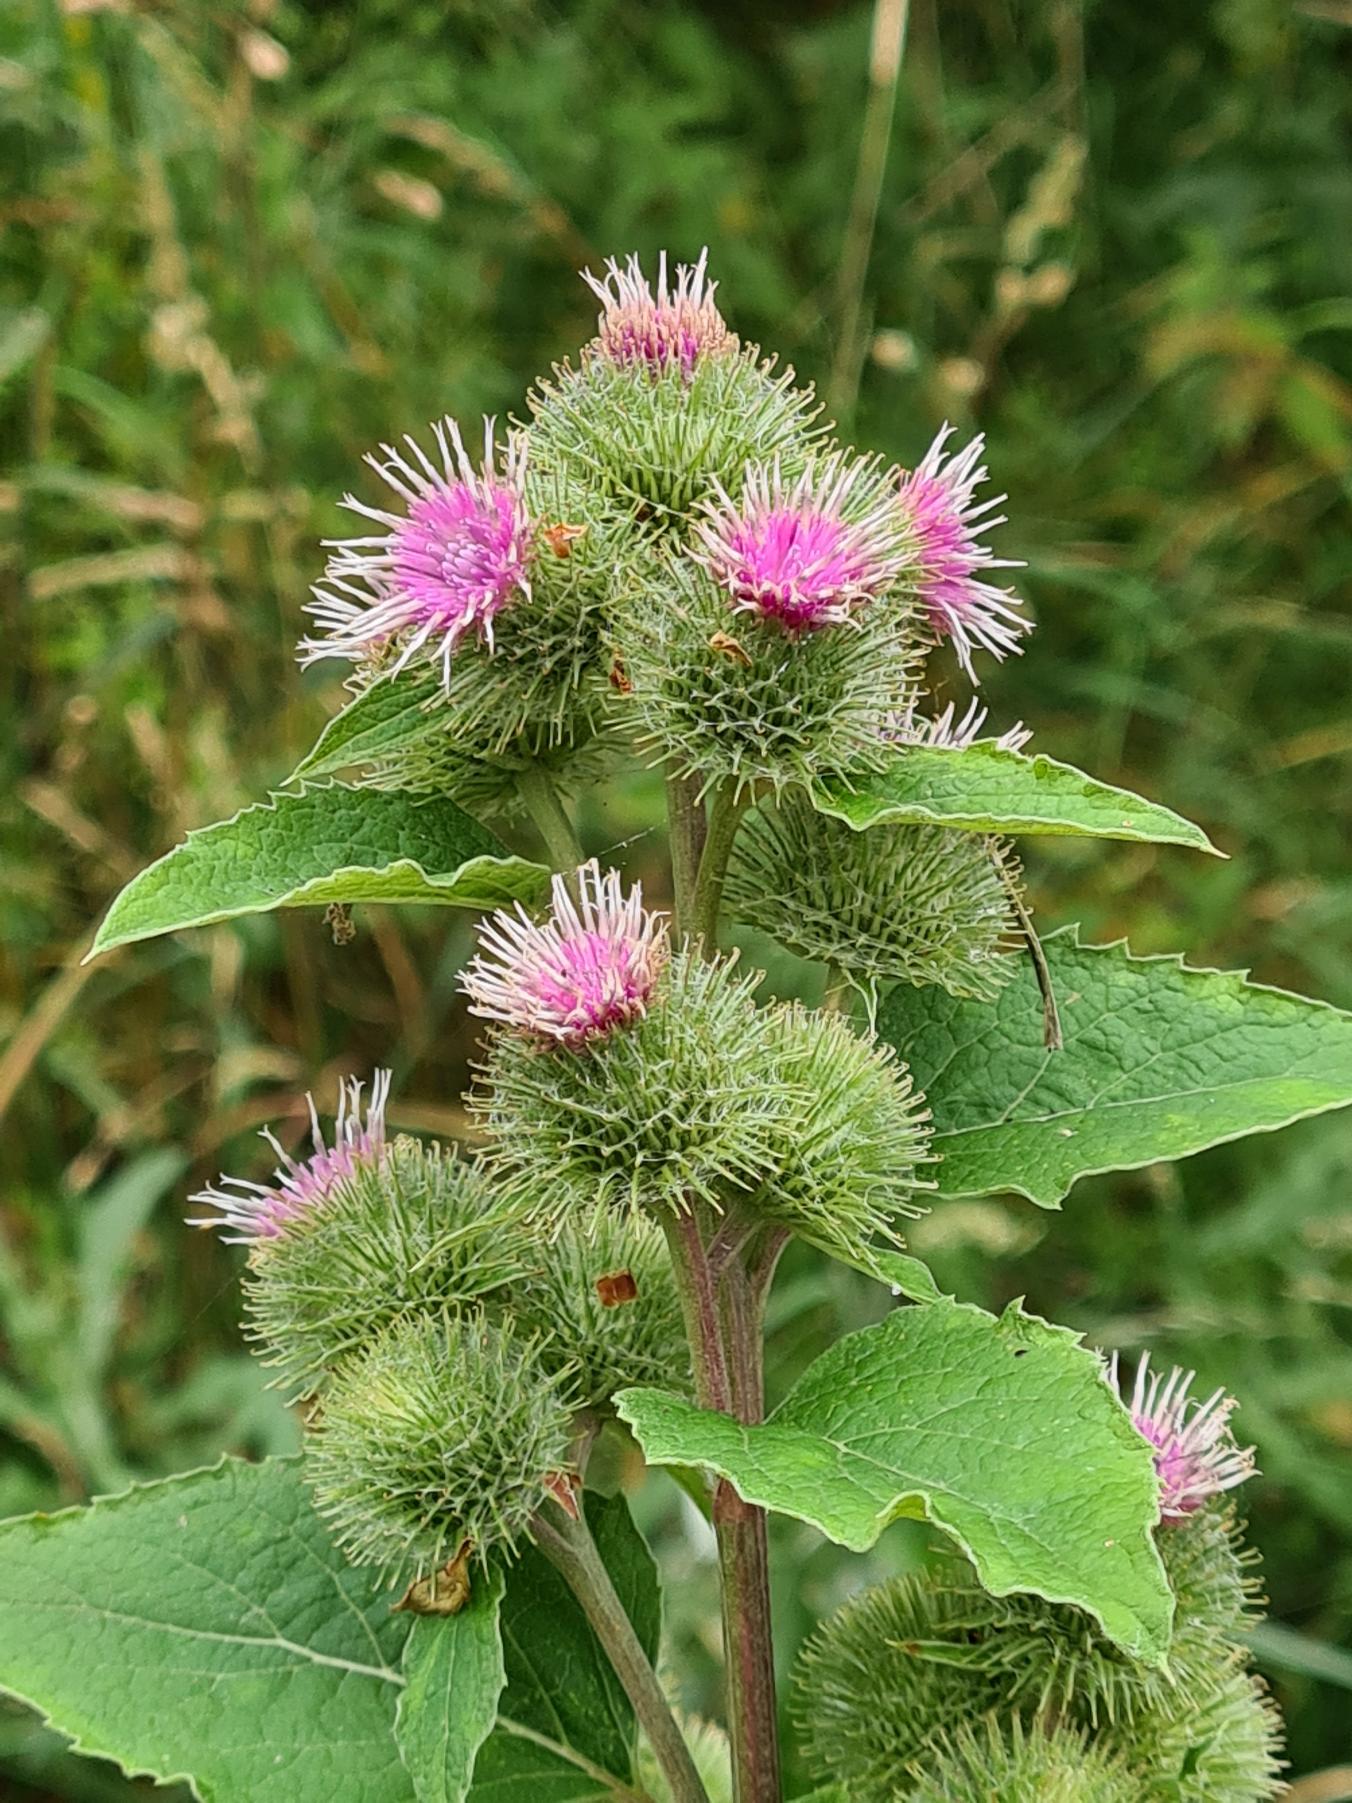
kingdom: Plantae
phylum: Tracheophyta
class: Magnoliopsida
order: Asterales
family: Asteraceae
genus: Arctium
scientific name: Arctium nemorosum
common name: Skov-burre
